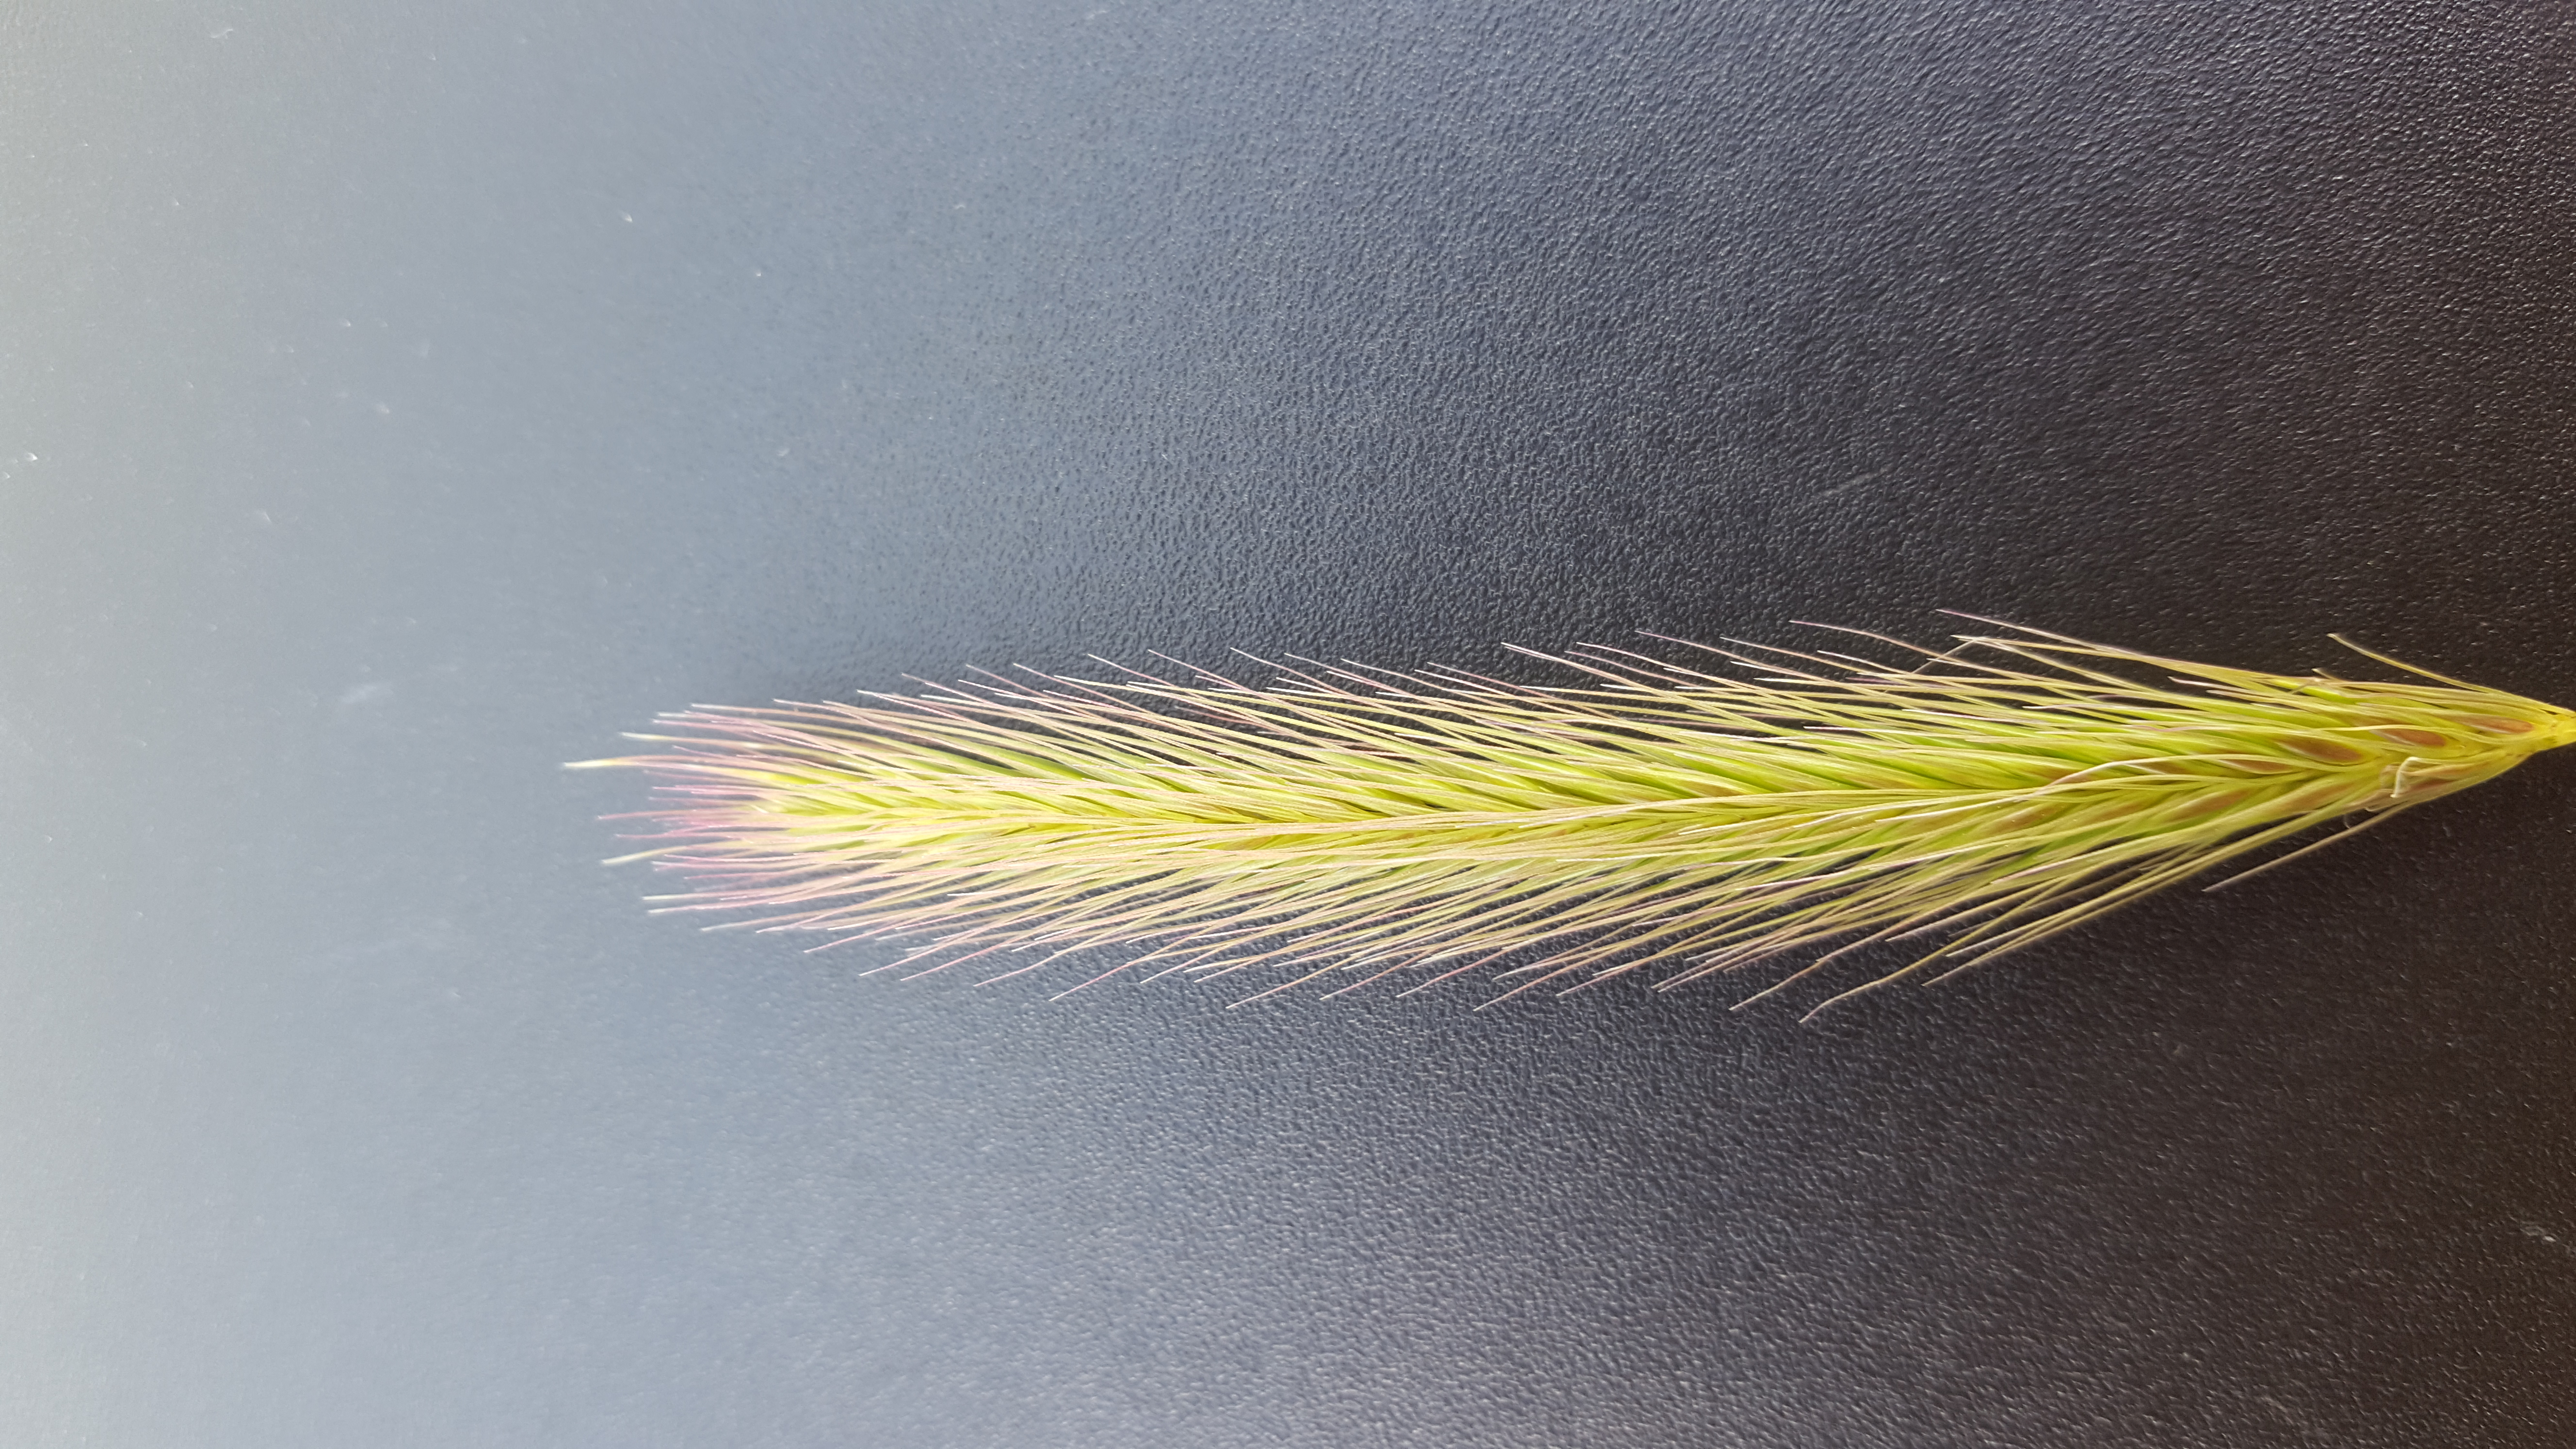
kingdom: Plantae
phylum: Tracheophyta
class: Liliopsida
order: Poales
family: Poaceae
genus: Hordeum
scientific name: Hordeum californicum
